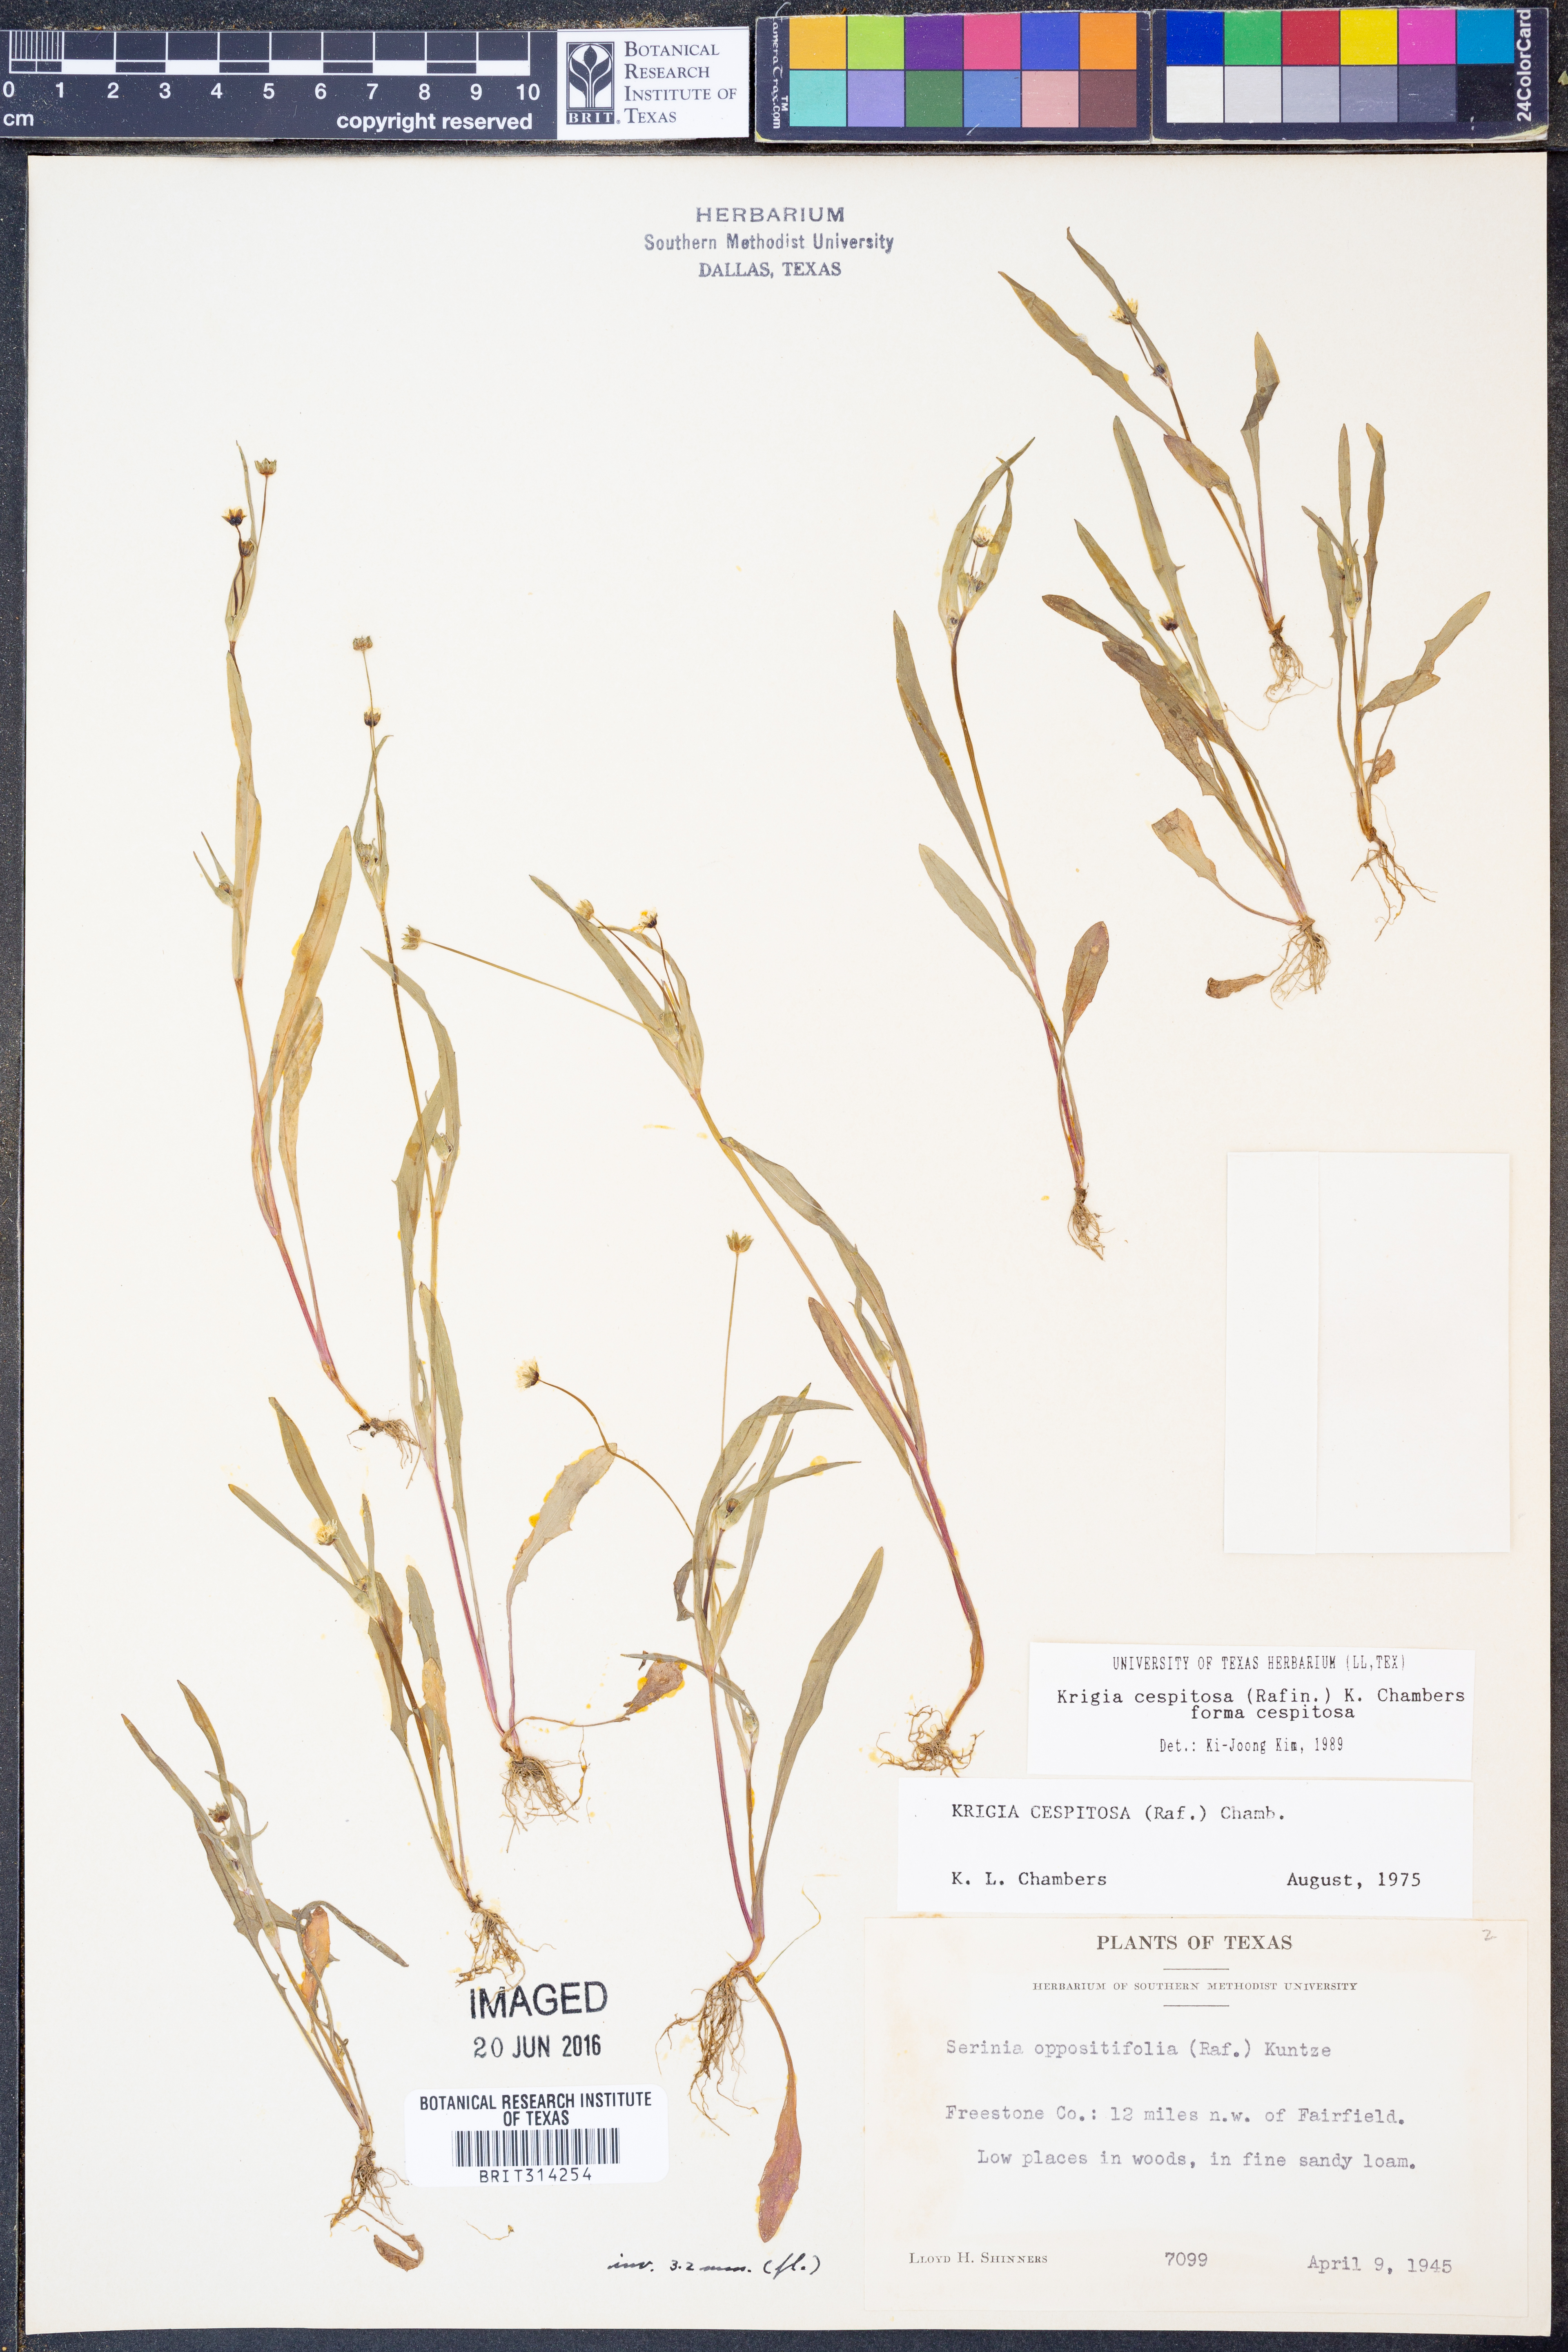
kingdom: Plantae
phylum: Tracheophyta
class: Magnoliopsida
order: Asterales
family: Asteraceae
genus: Krigia
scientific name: Krigia cespitosa
